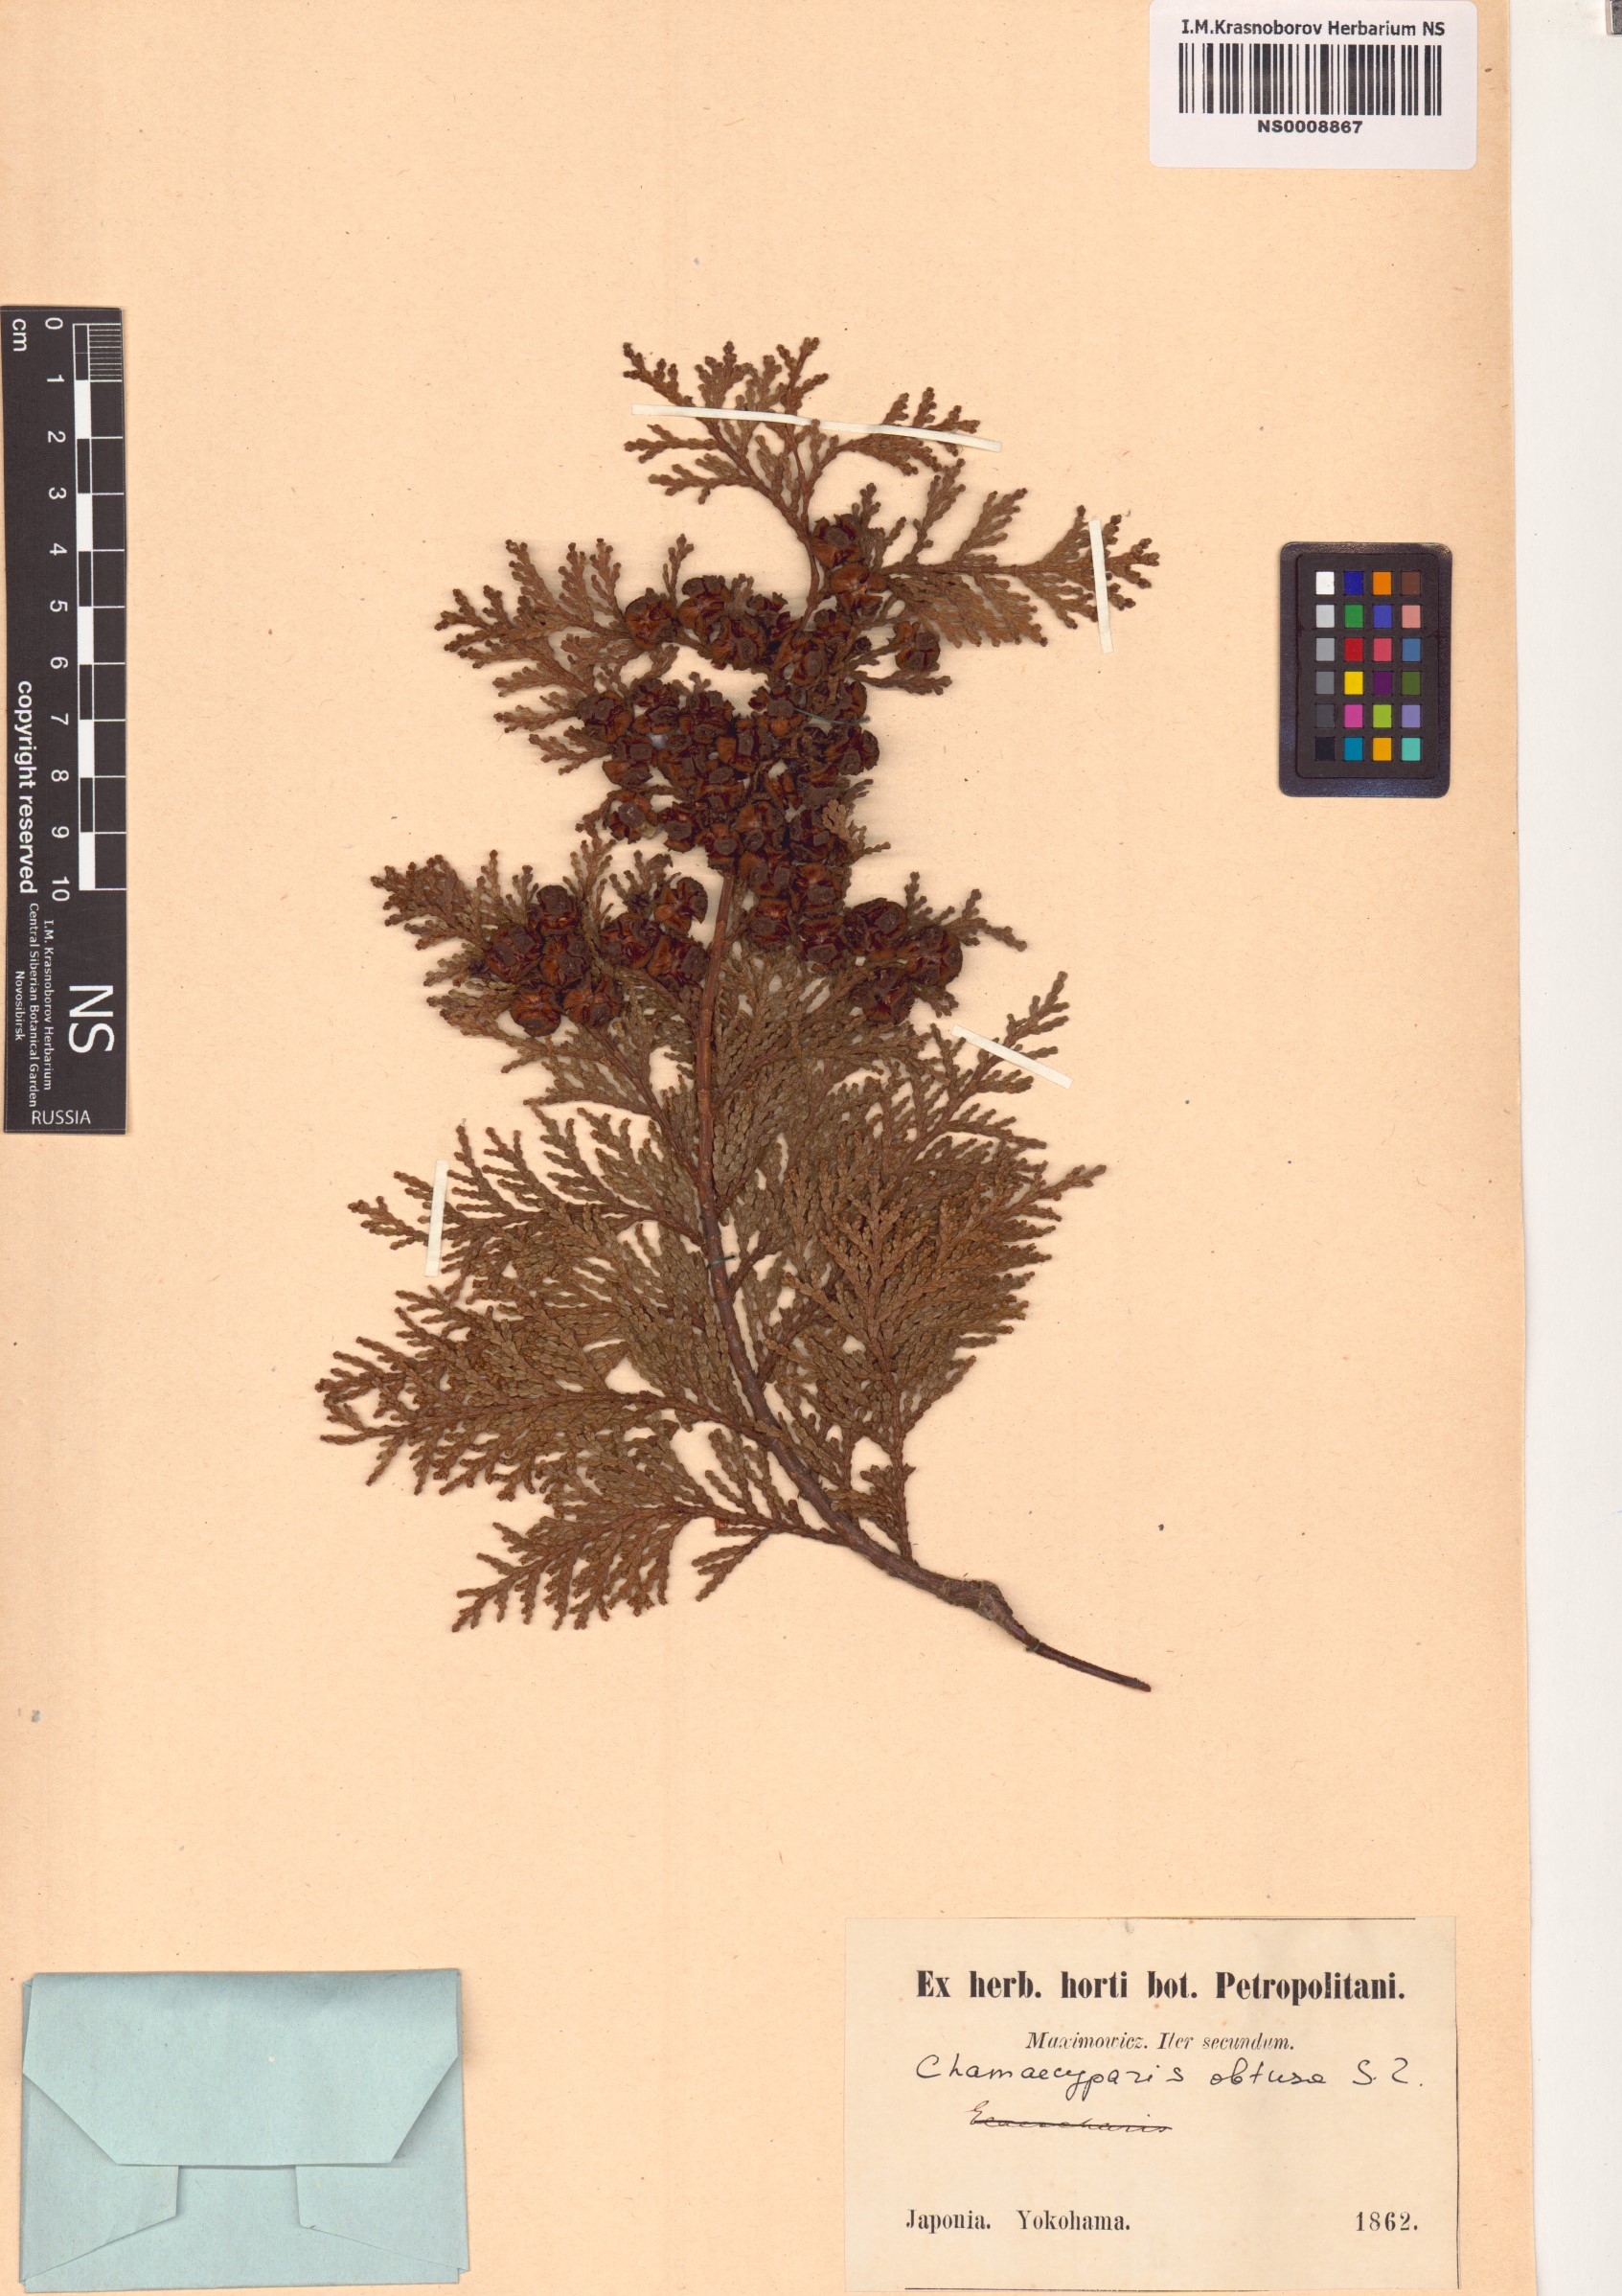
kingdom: Plantae
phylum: Tracheophyta
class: Pinopsida
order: Pinales
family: Cupressaceae
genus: Chamaecyparis
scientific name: Chamaecyparis obtusa
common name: Hinoki false cypress
